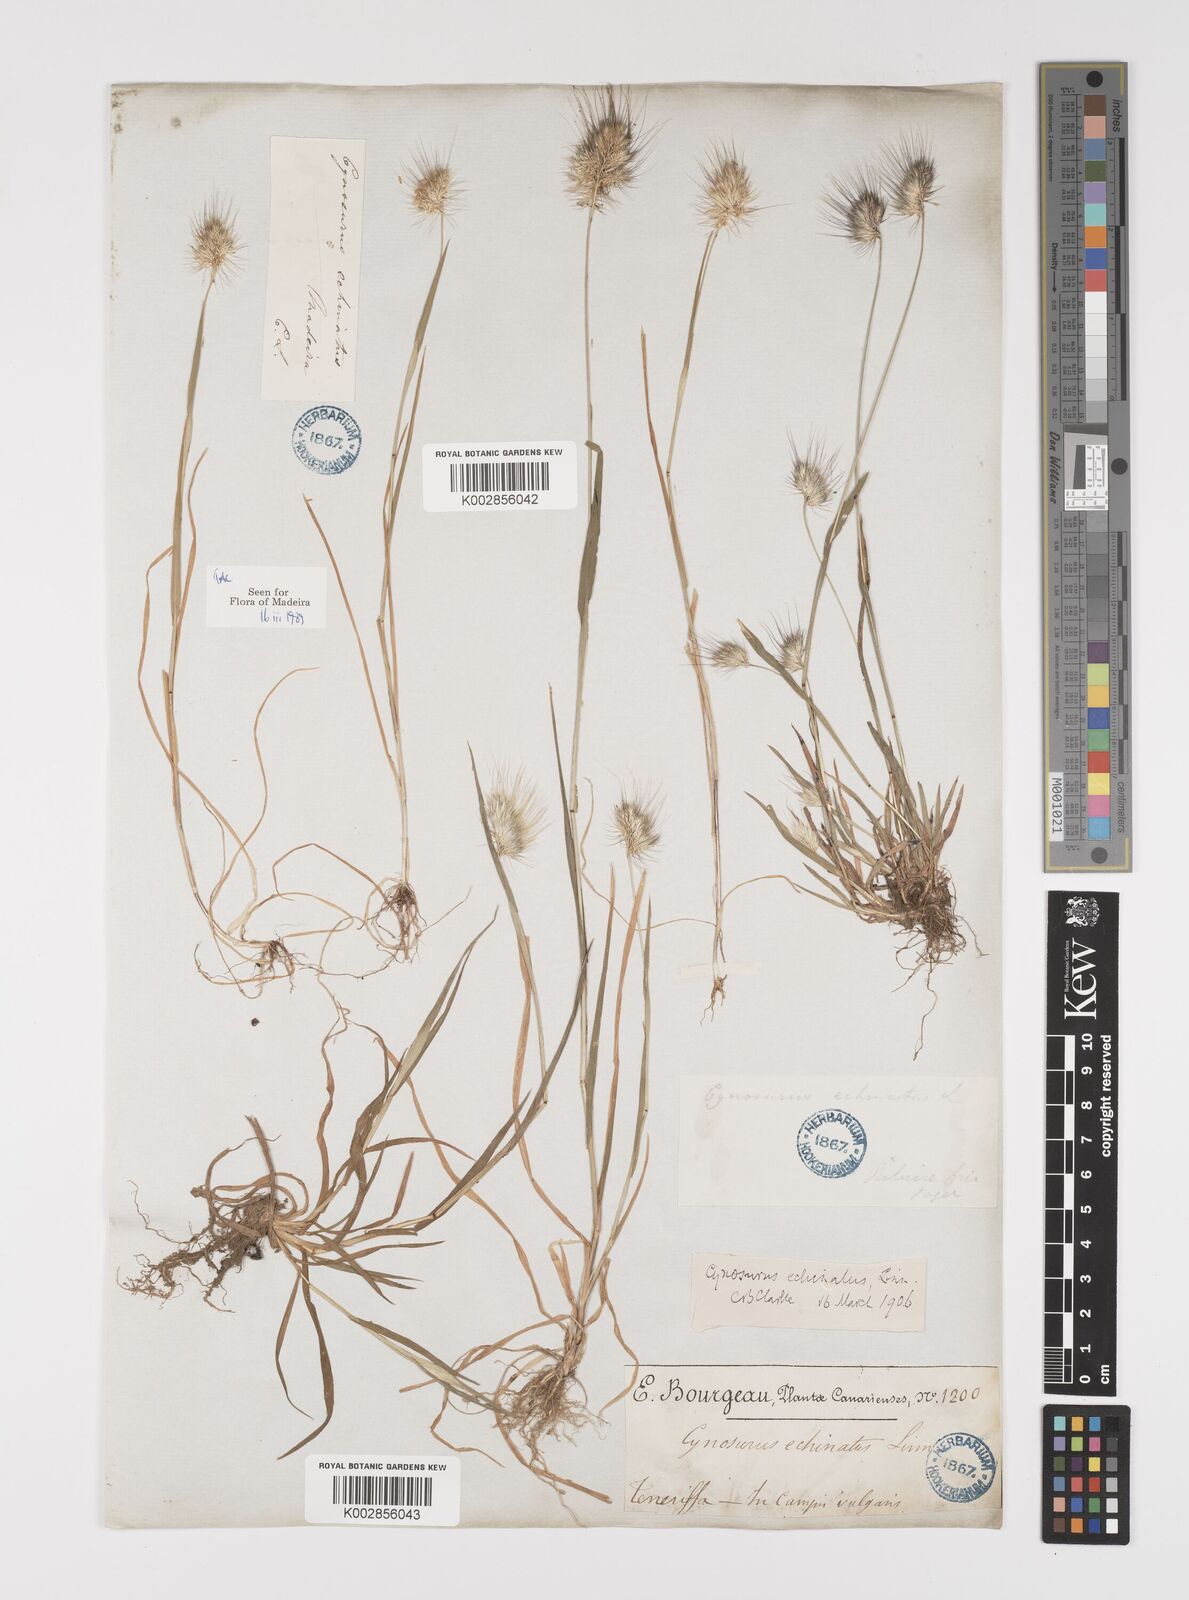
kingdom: Plantae
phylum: Tracheophyta
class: Liliopsida
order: Poales
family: Poaceae
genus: Cynosurus
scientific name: Cynosurus echinatus
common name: Rough dog's-tail
